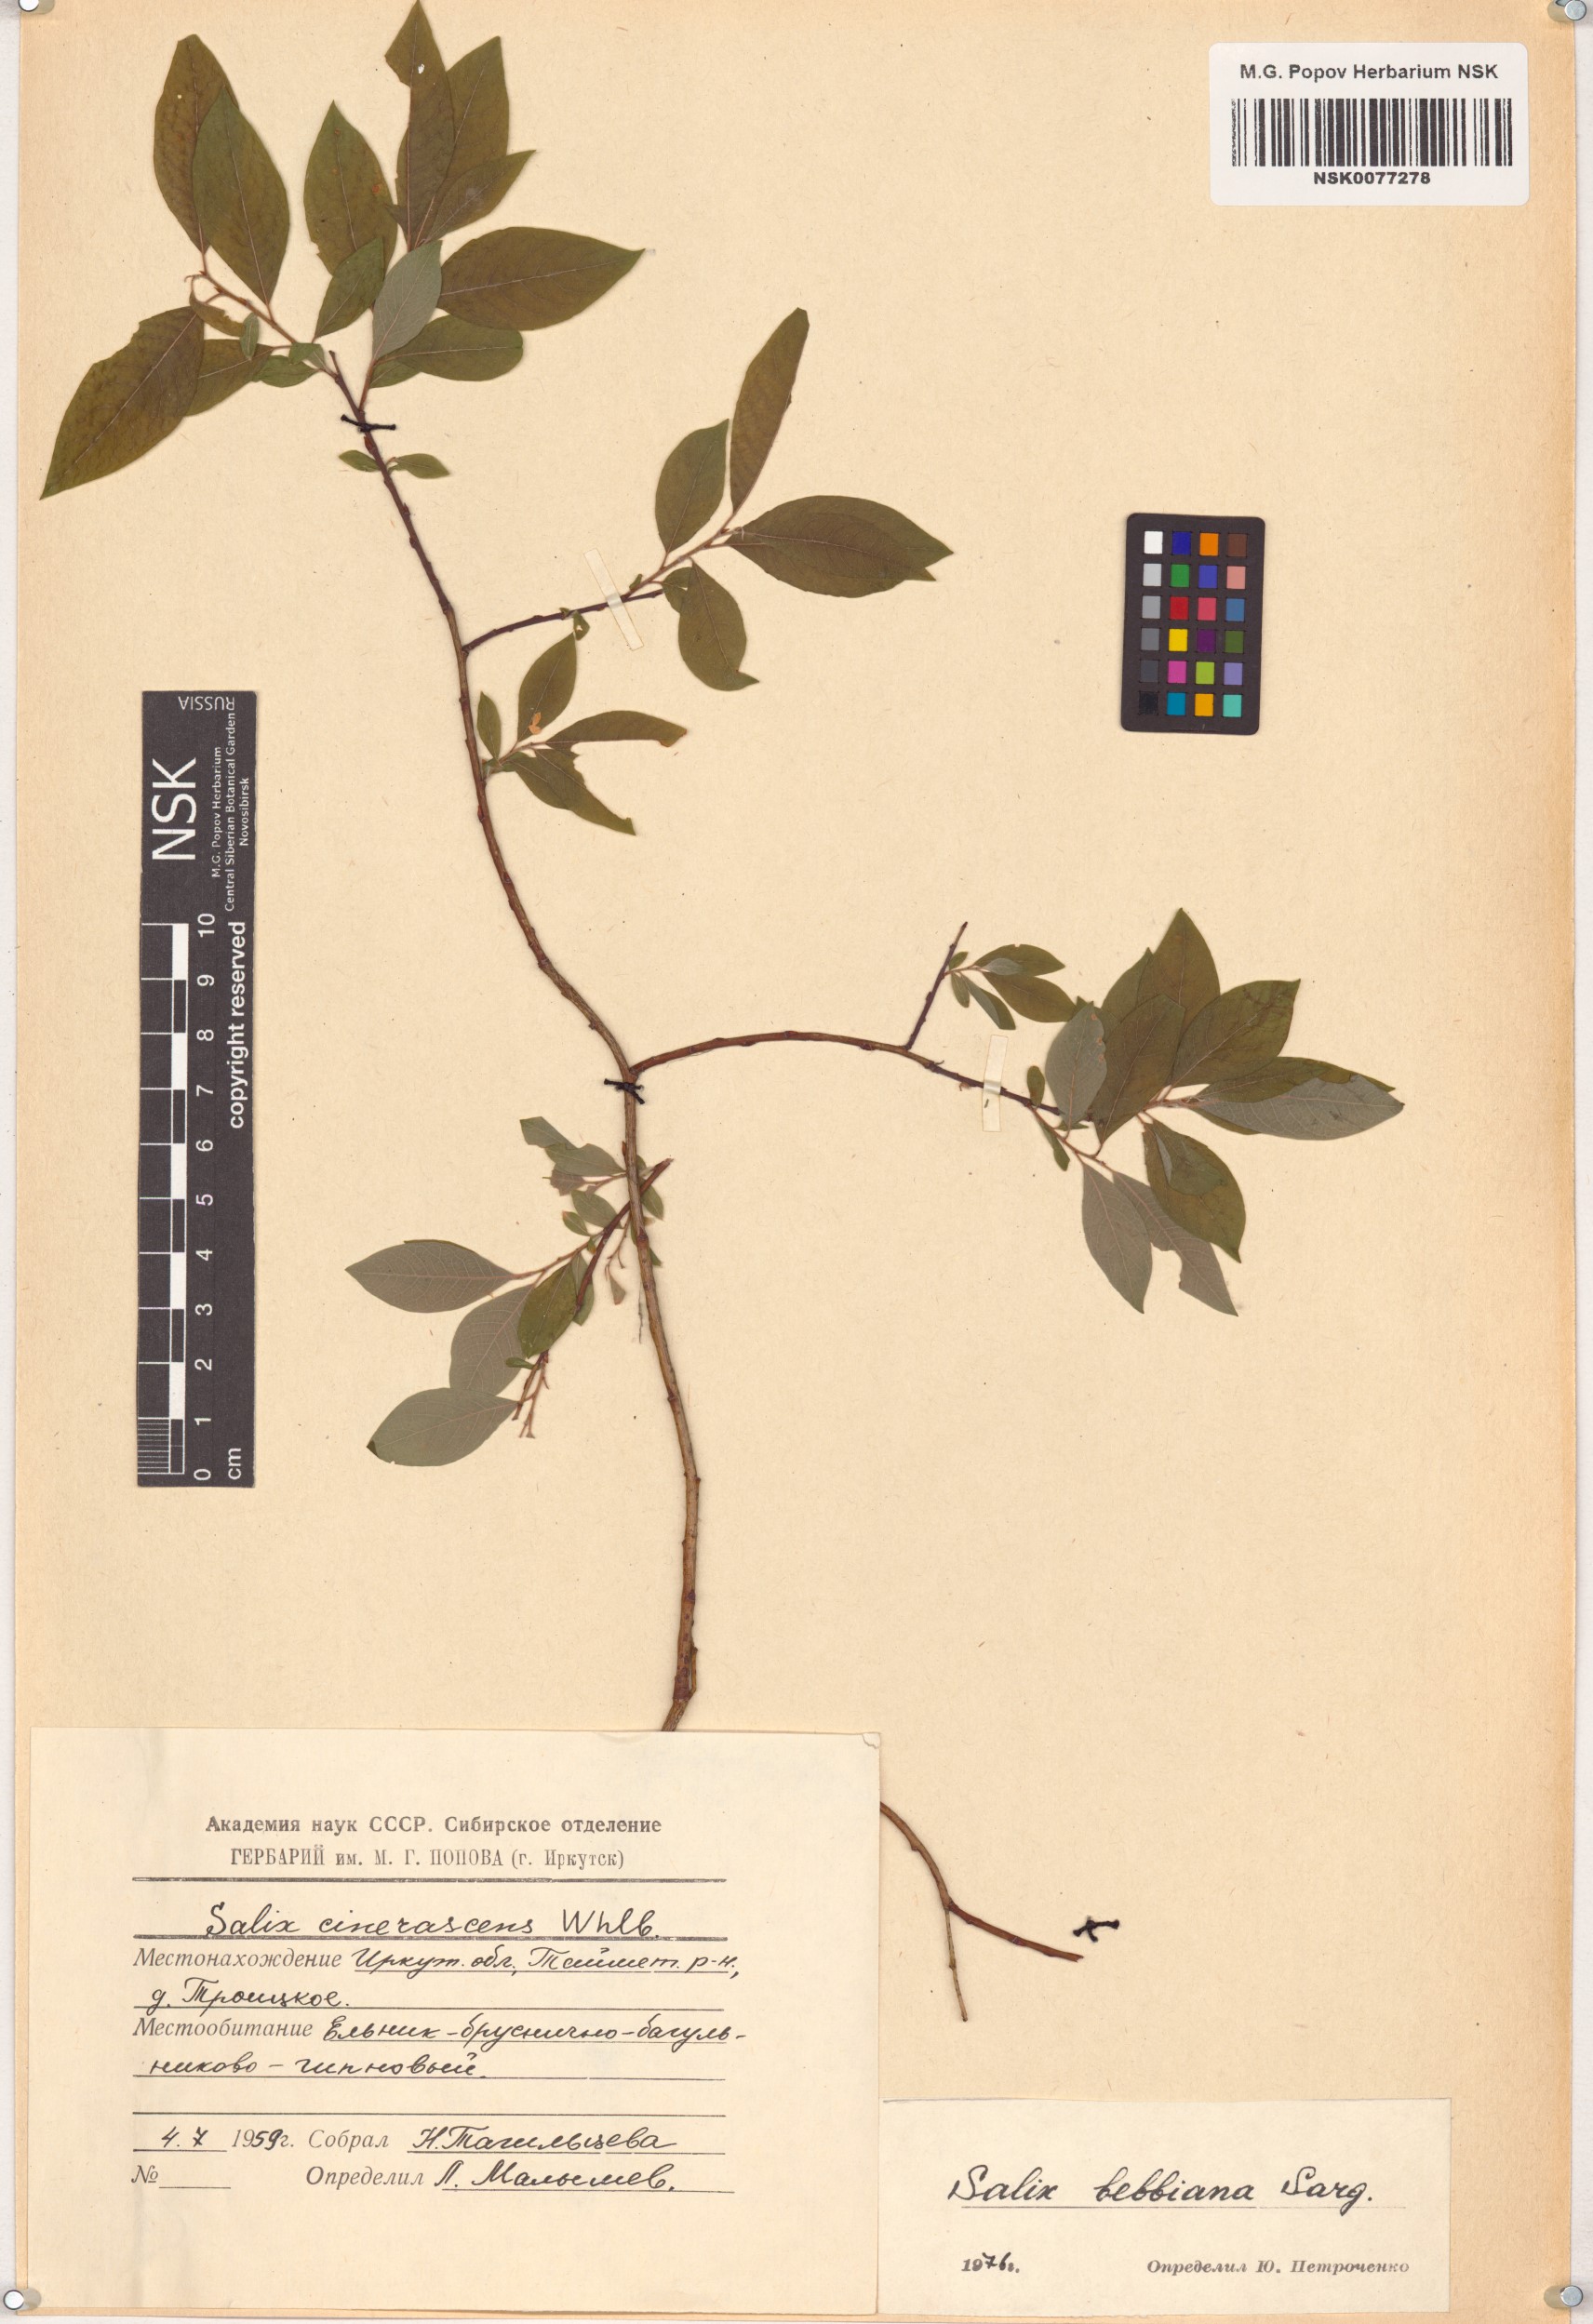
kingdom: Plantae
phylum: Tracheophyta
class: Magnoliopsida
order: Malpighiales
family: Salicaceae
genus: Salix
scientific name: Salix bebbiana
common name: Bebb's willow
